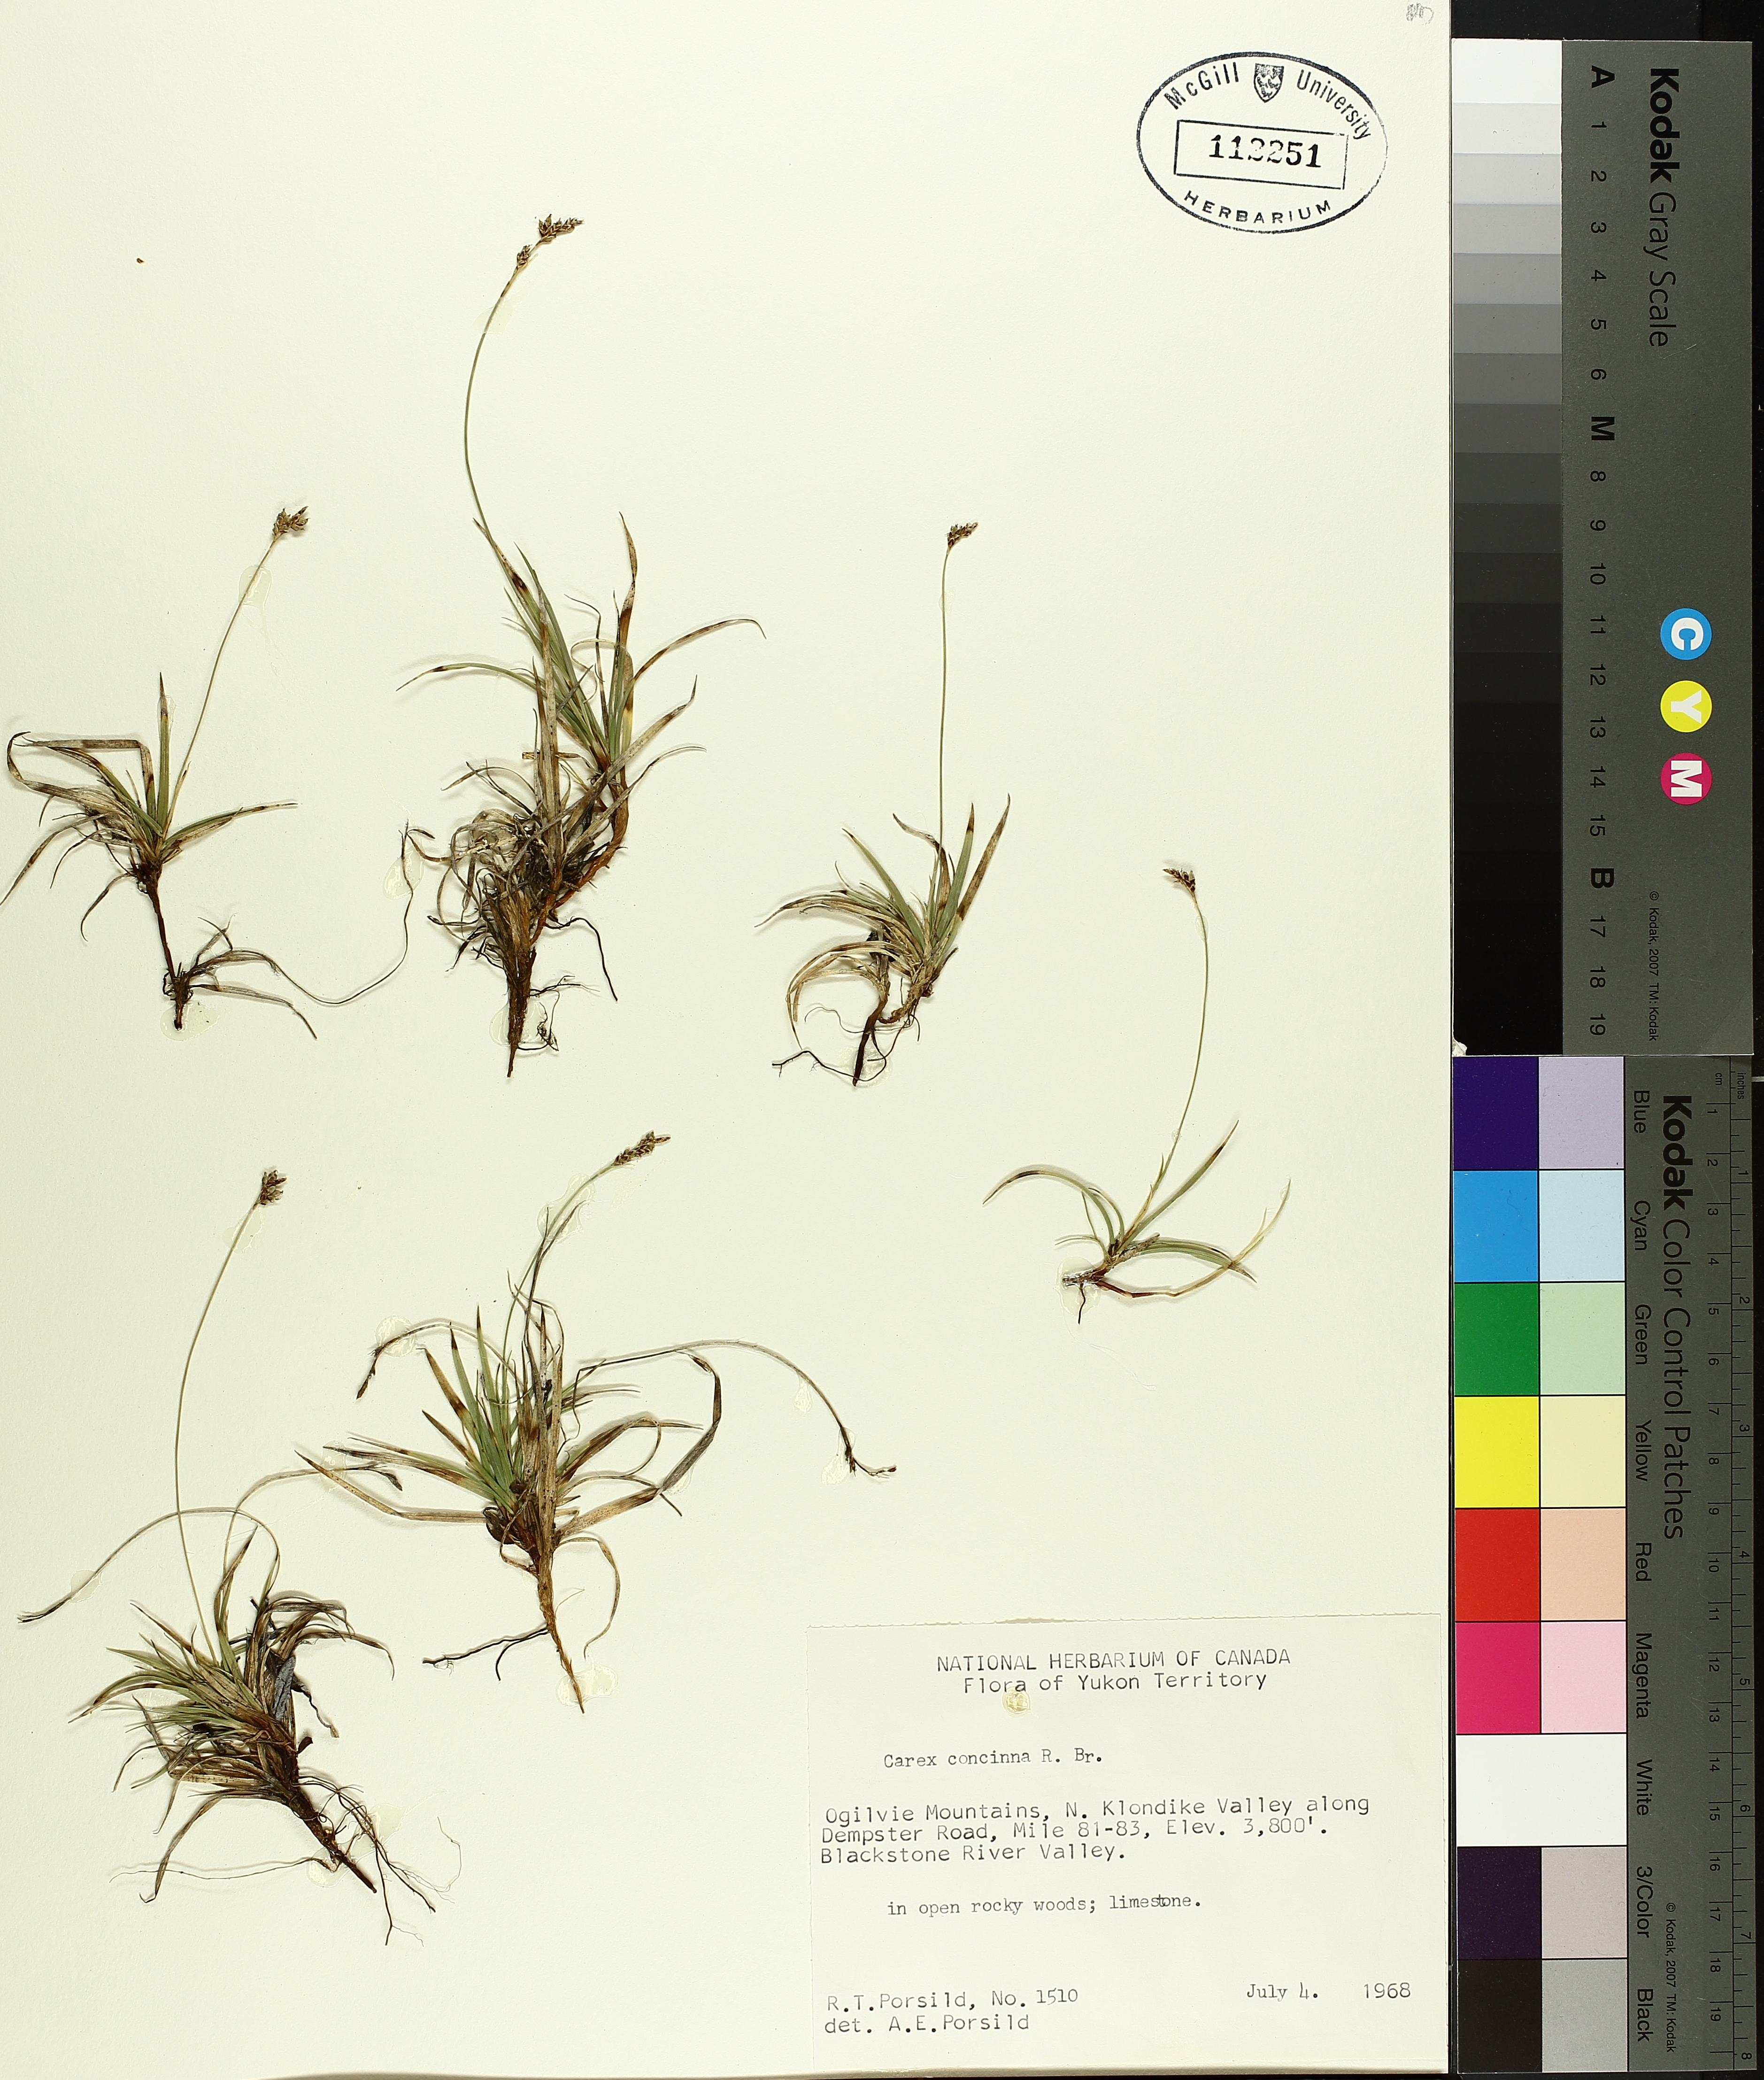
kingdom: Plantae
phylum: Tracheophyta
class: Liliopsida
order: Poales
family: Cyperaceae
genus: Carex
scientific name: Carex concinna
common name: Beautiful sedge
